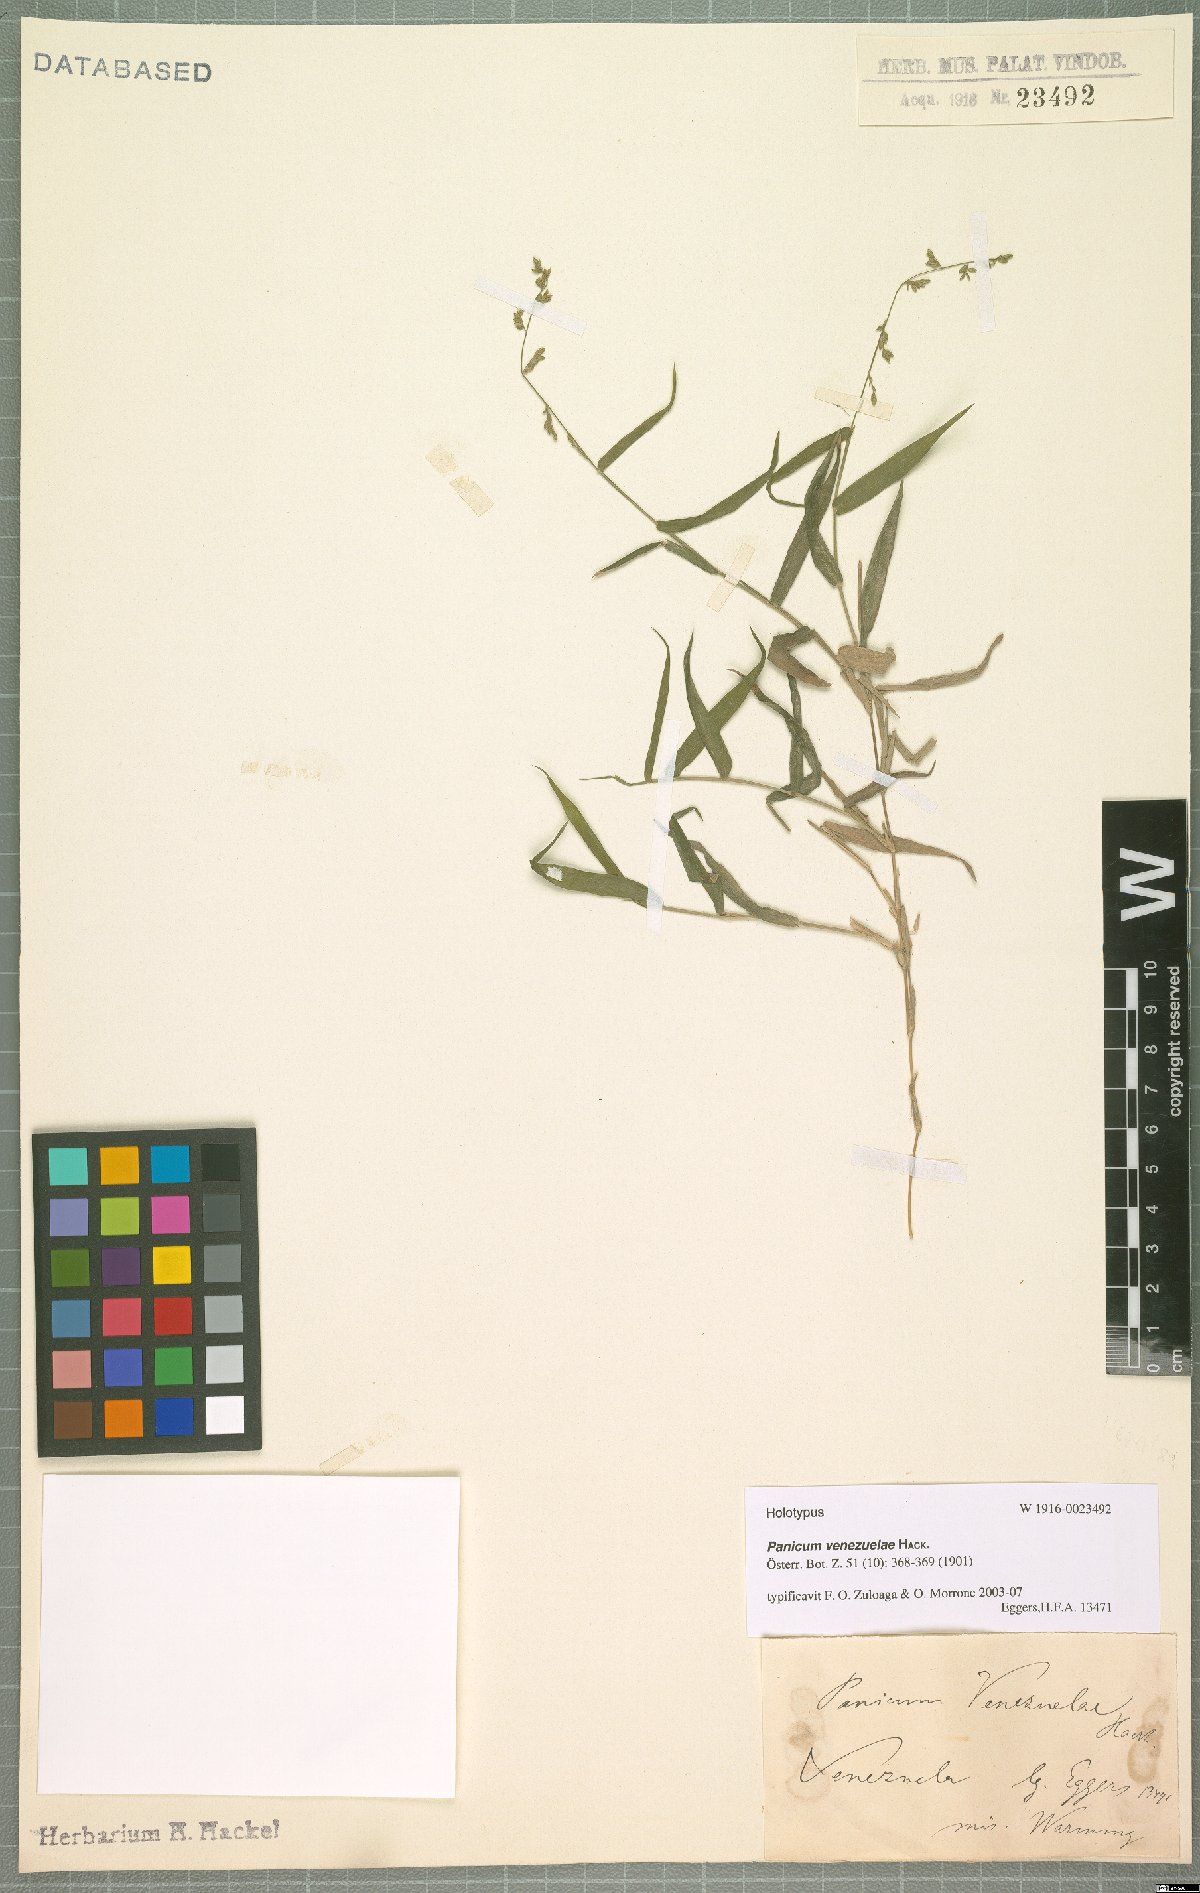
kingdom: Plantae
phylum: Tracheophyta
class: Liliopsida
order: Poales
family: Poaceae
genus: Panicum
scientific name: Panicum venezuelae
